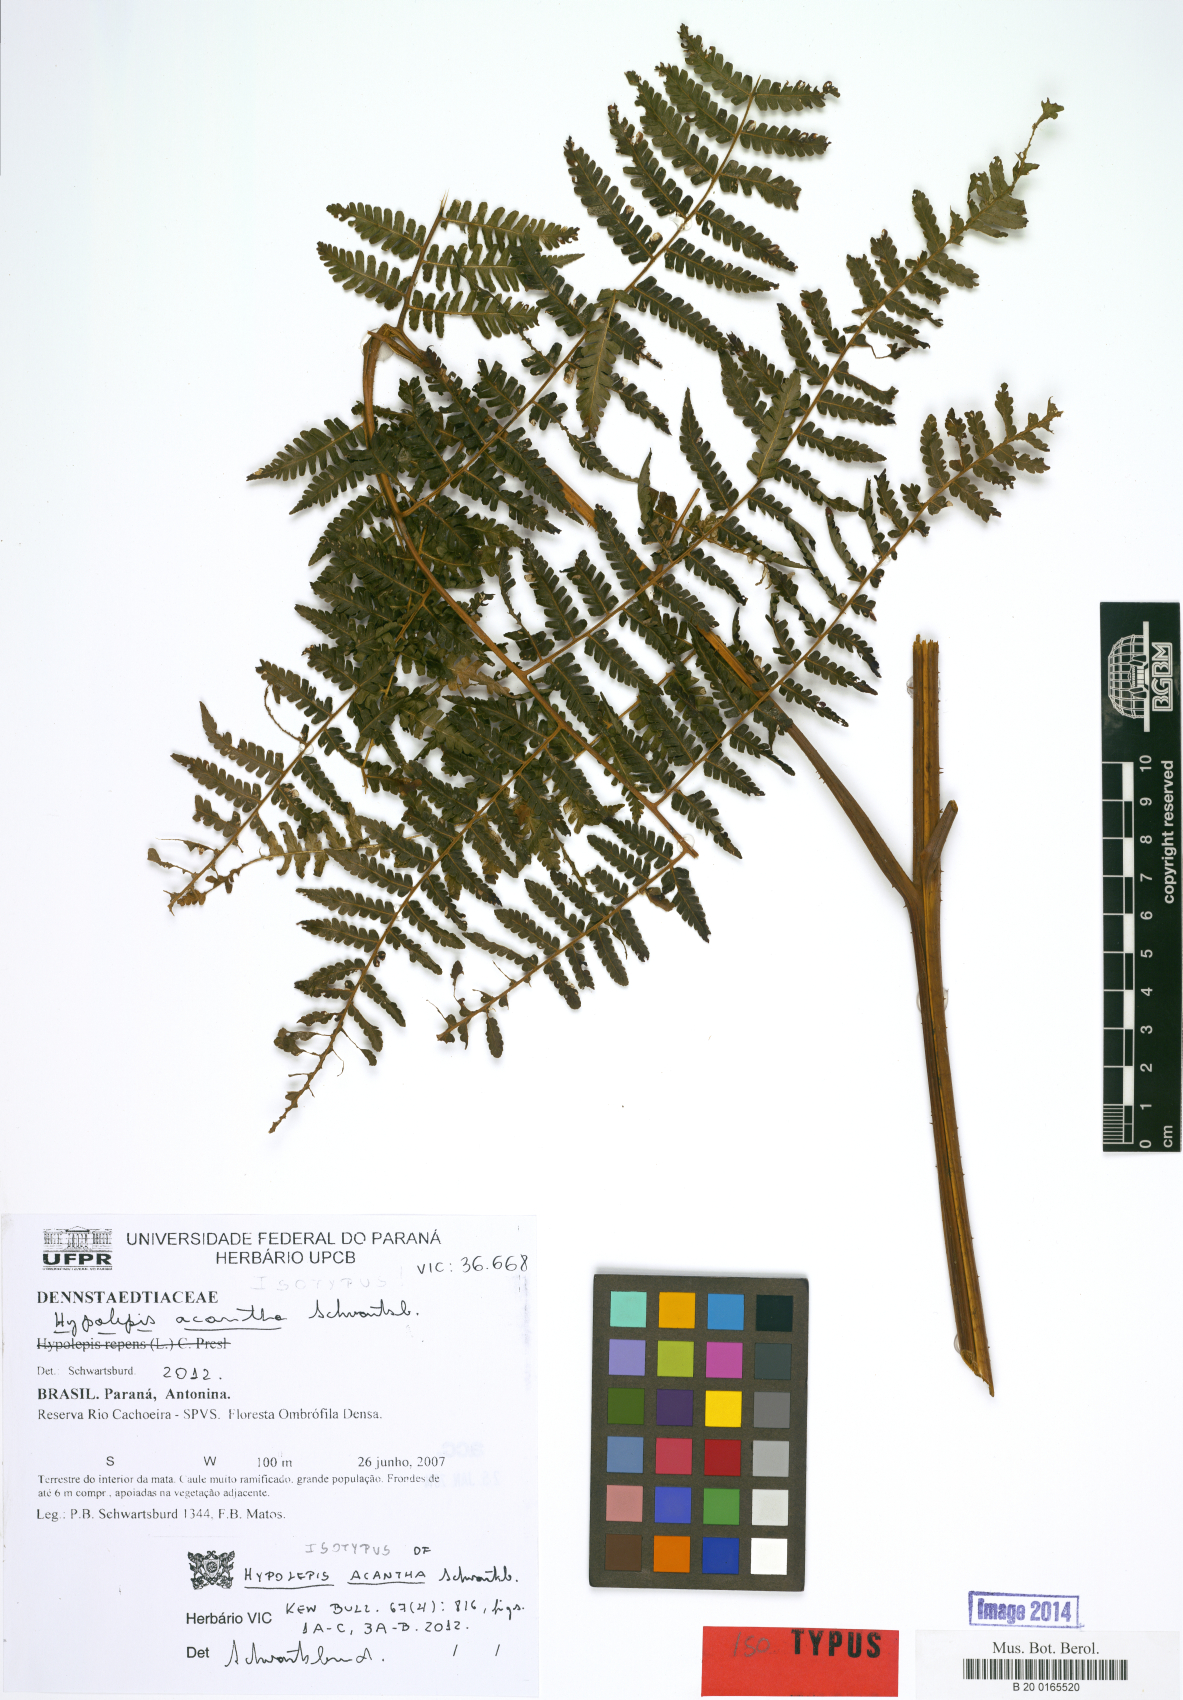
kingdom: Plantae
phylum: Tracheophyta
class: Polypodiopsida
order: Polypodiales
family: Dennstaedtiaceae
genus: Hypolepis
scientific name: Hypolepis acantha
